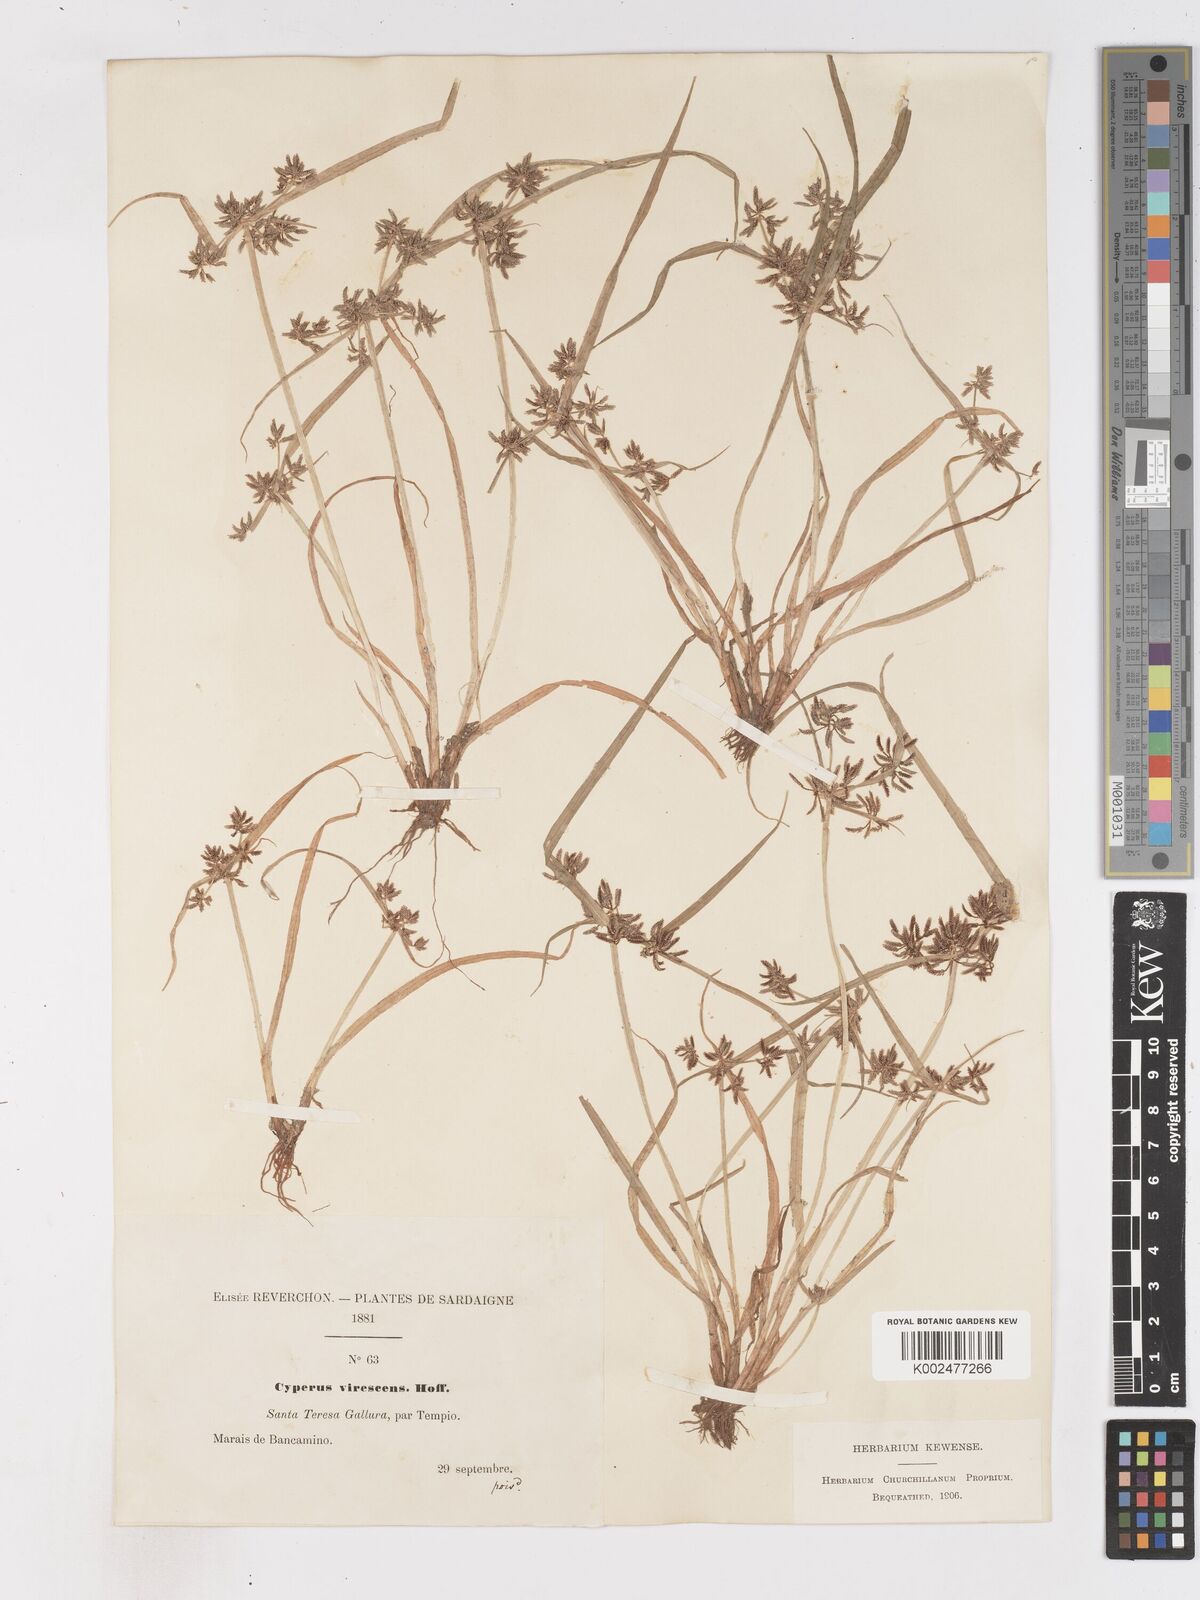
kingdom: Plantae
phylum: Tracheophyta
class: Liliopsida
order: Poales
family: Cyperaceae
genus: Cyperus
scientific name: Cyperus fuscus
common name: Brown galingale
